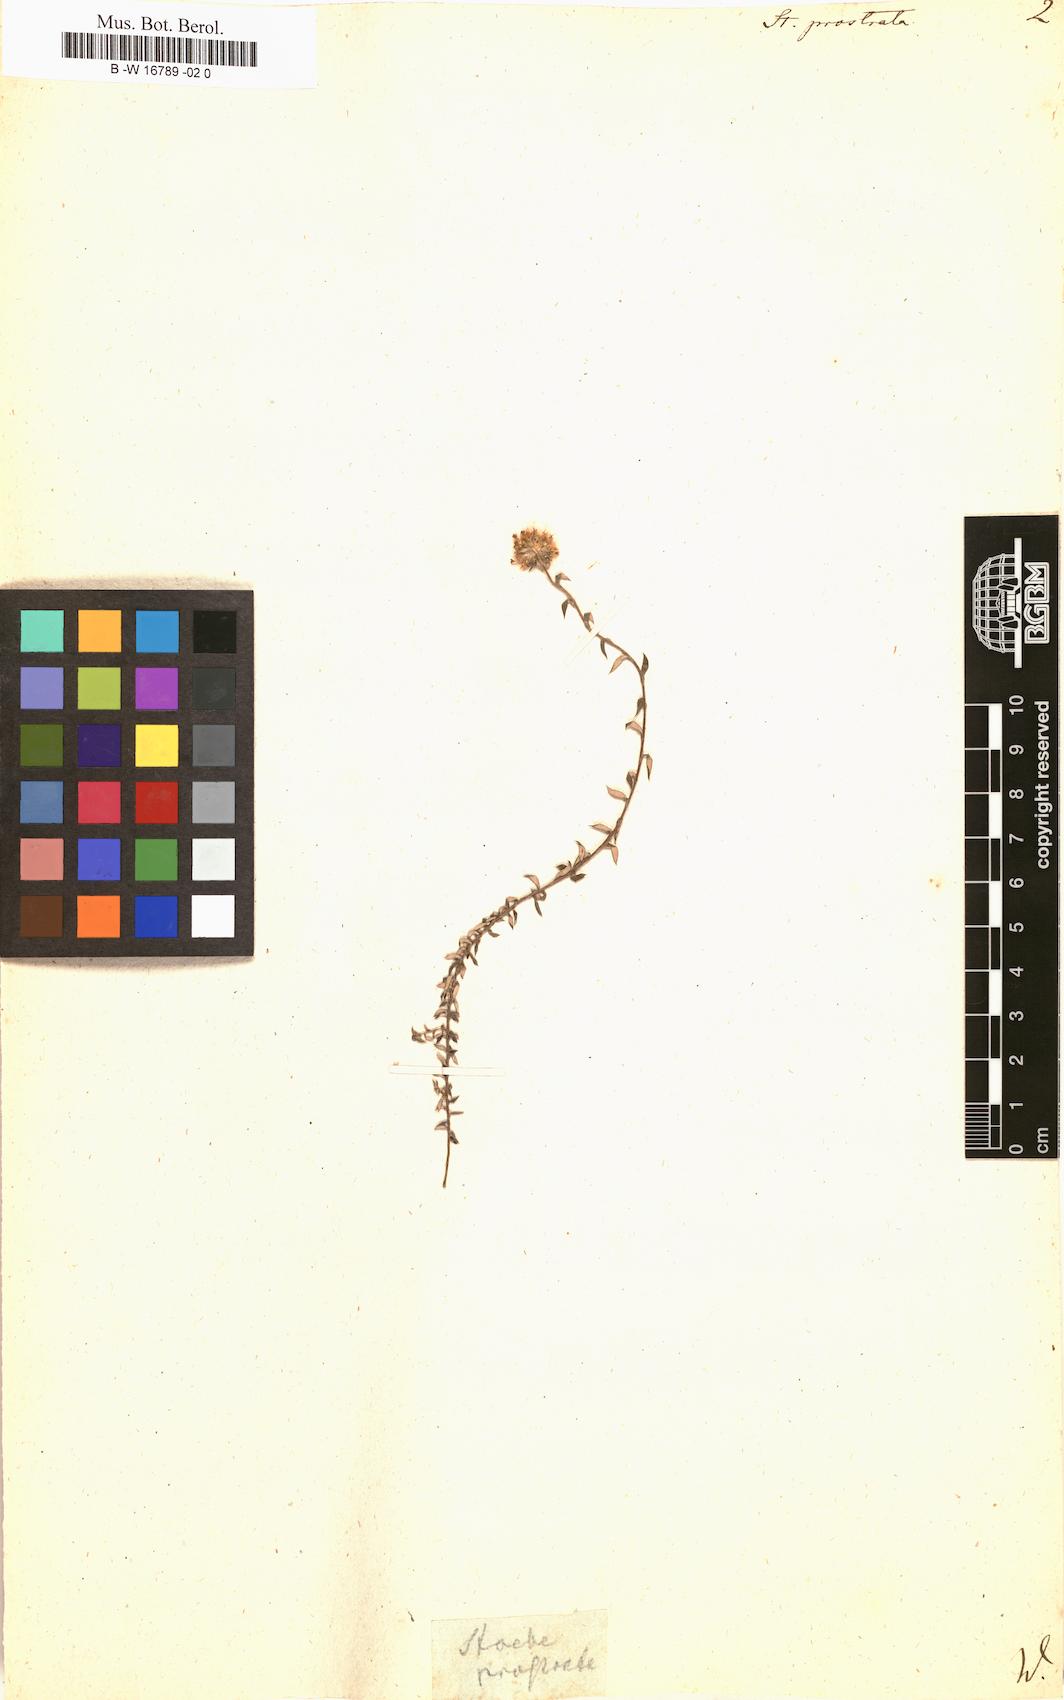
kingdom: Plantae
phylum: Tracheophyta
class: Magnoliopsida
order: Asterales
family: Asteraceae
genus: Stoebe
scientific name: Stoebe prostrata
